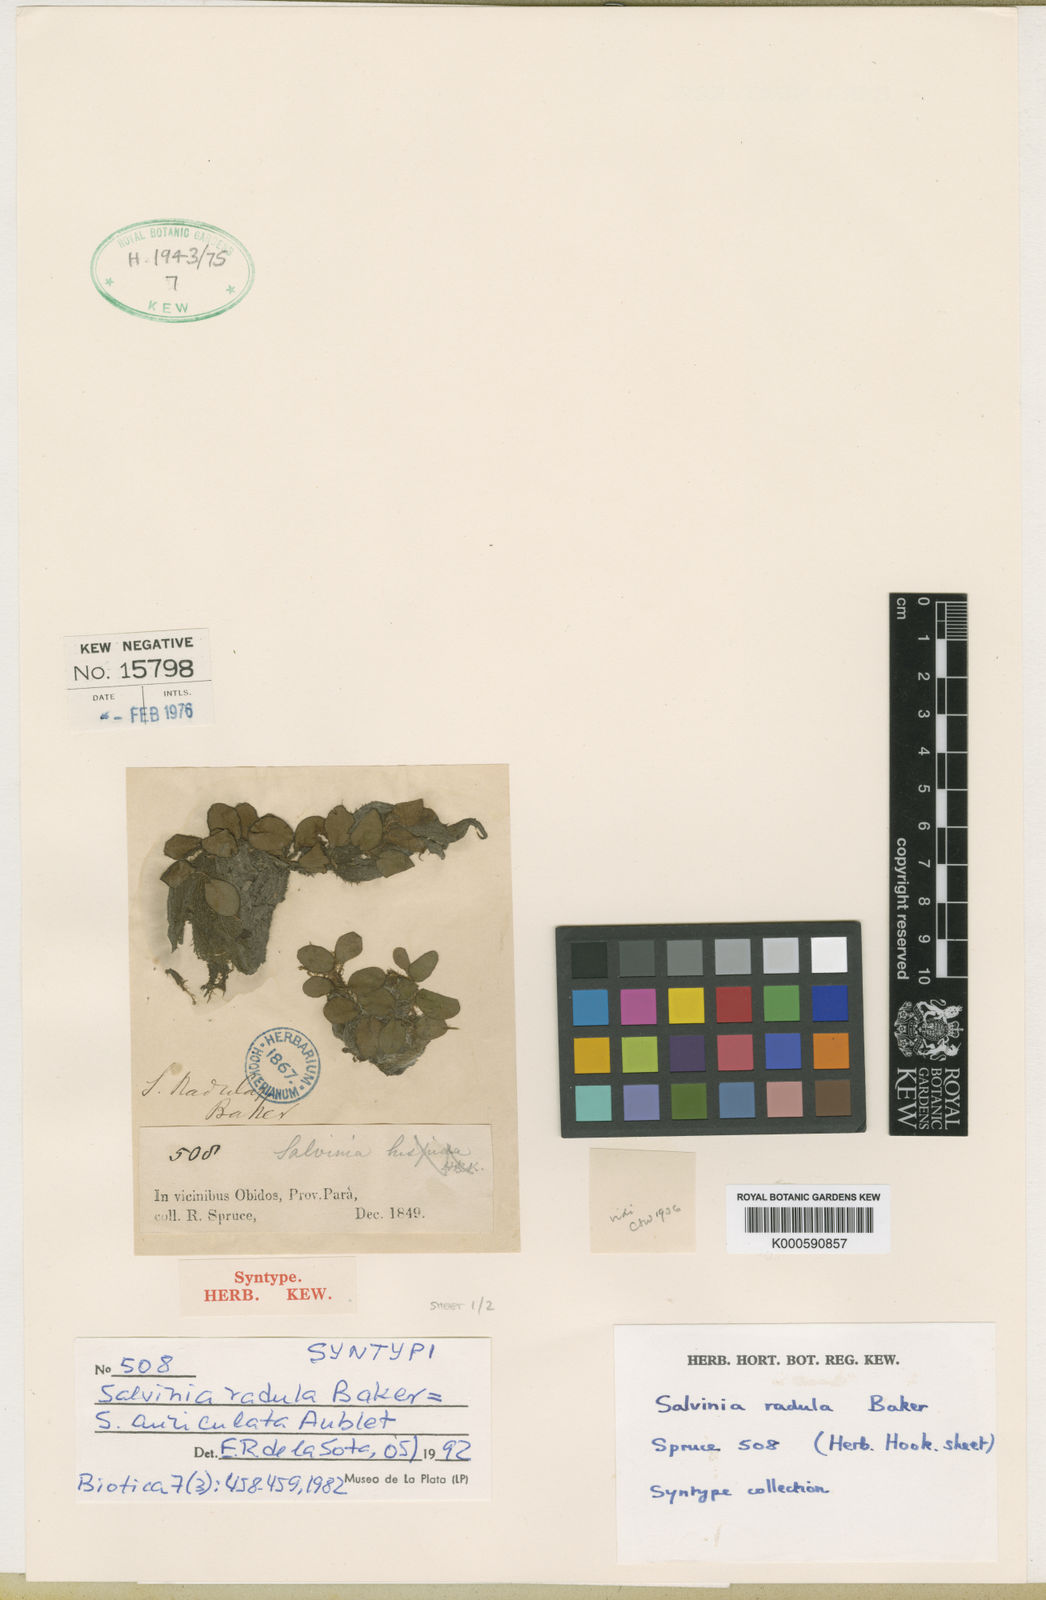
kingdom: Plantae
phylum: Tracheophyta
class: Polypodiopsida
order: Salviniales
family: Salviniaceae
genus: Salvinia
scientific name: Salvinia auriculata
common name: African payal
